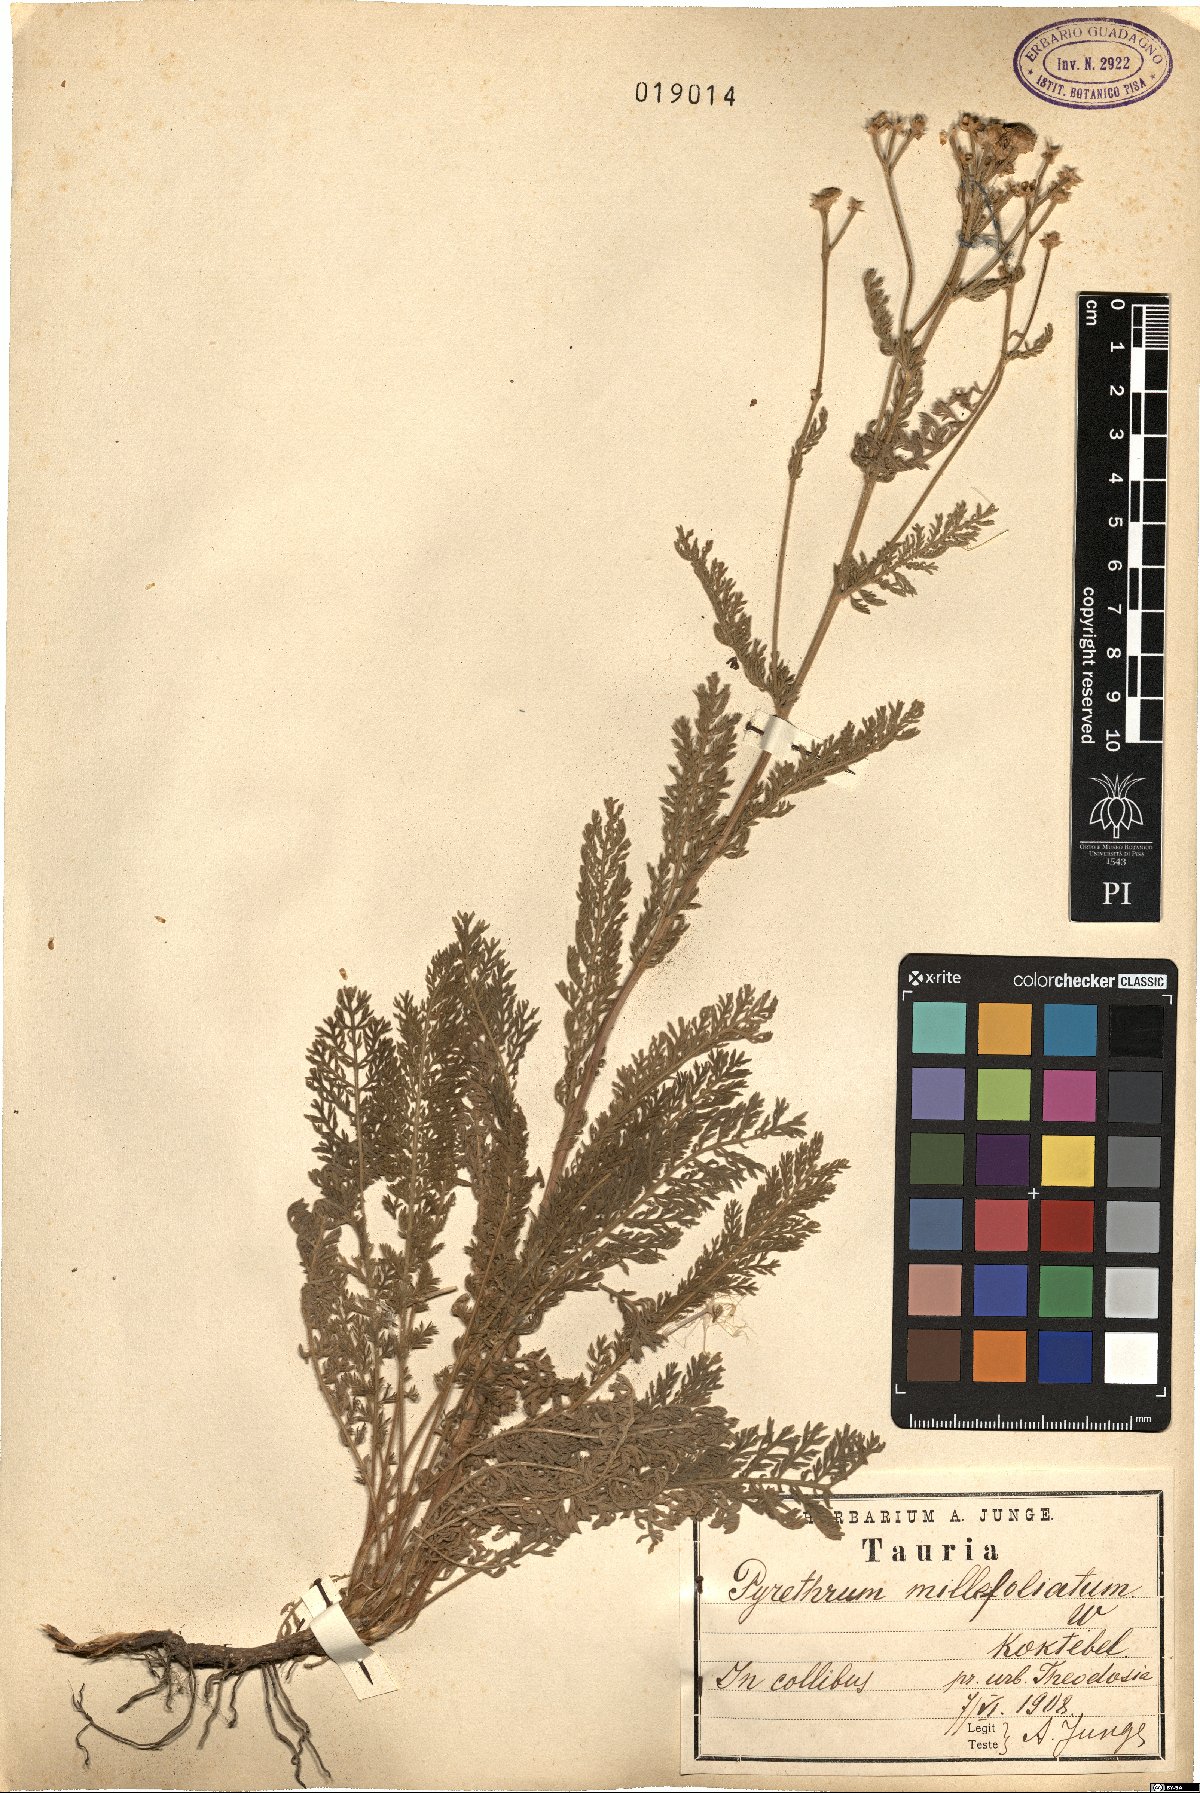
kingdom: Plantae
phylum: Tracheophyta
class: Magnoliopsida
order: Asterales
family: Asteraceae
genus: Tanacetum
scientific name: Tanacetum millefolium
